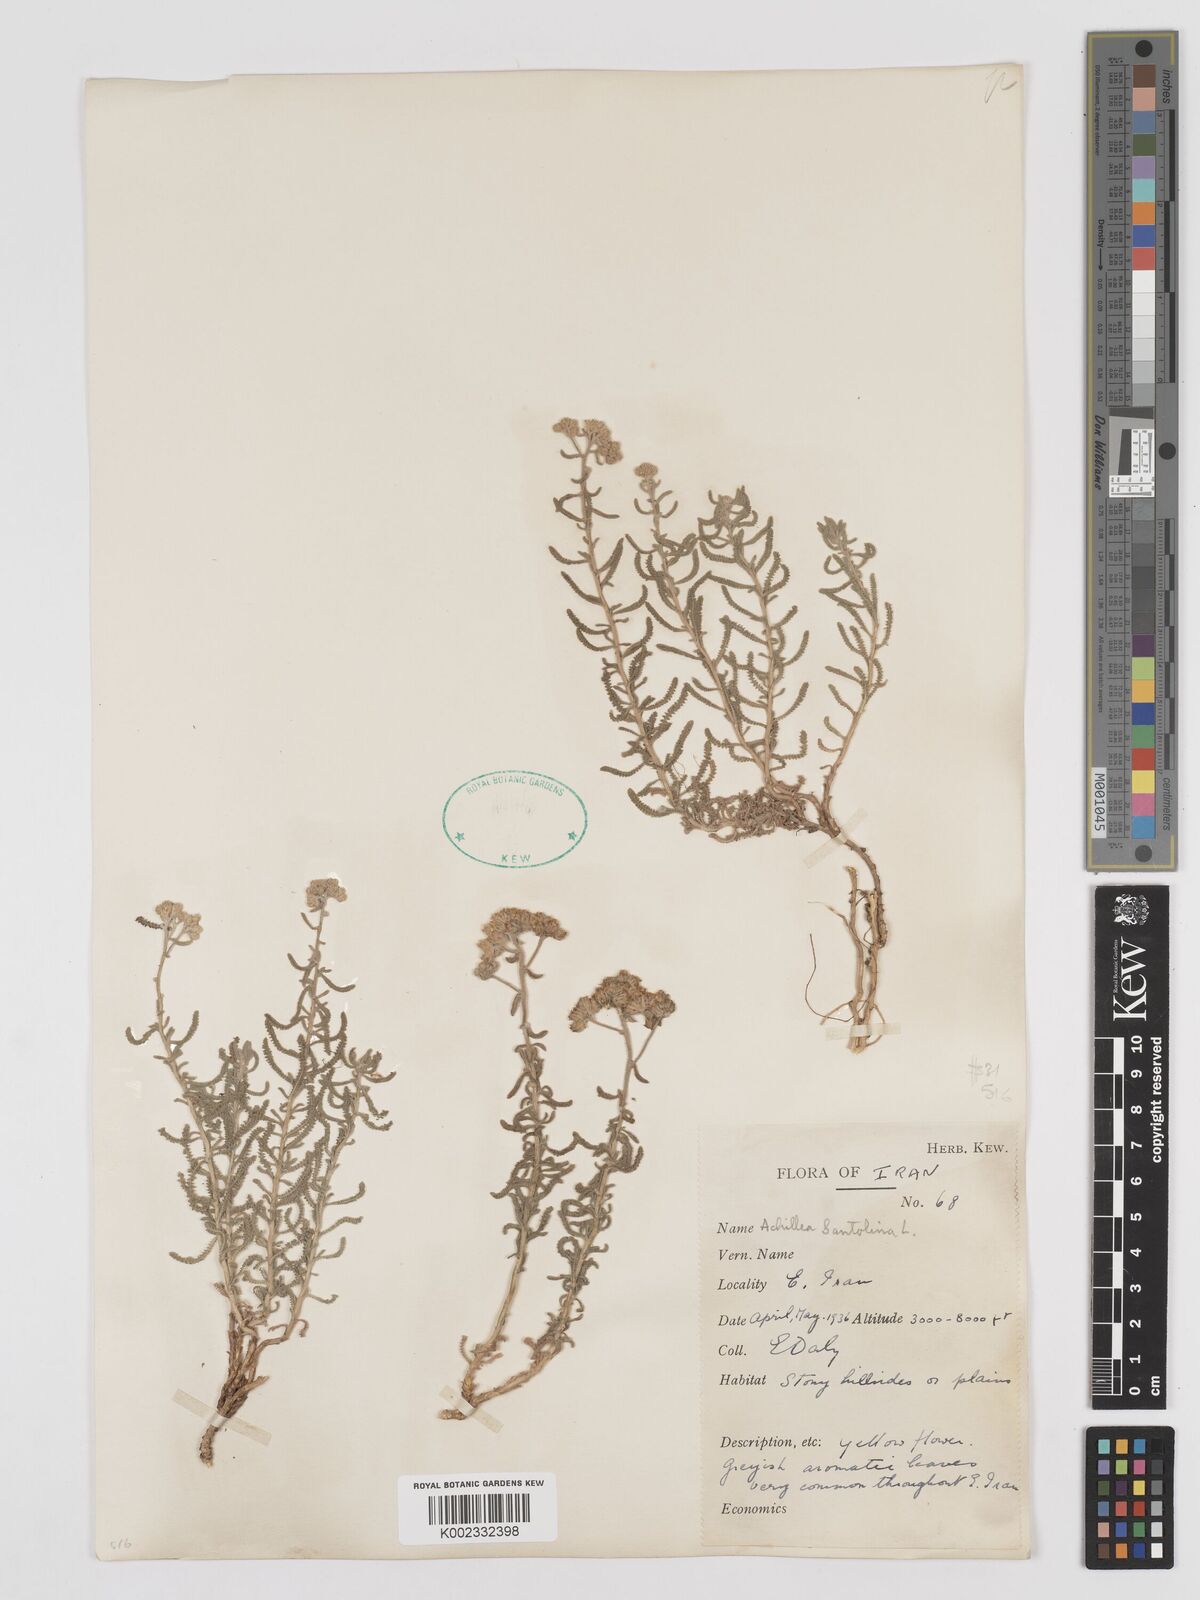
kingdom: Plantae
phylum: Tracheophyta
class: Magnoliopsida
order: Asterales
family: Asteraceae
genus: Achillea
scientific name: Achillea cretica
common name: Chamomile-leaved lavender-cotton
